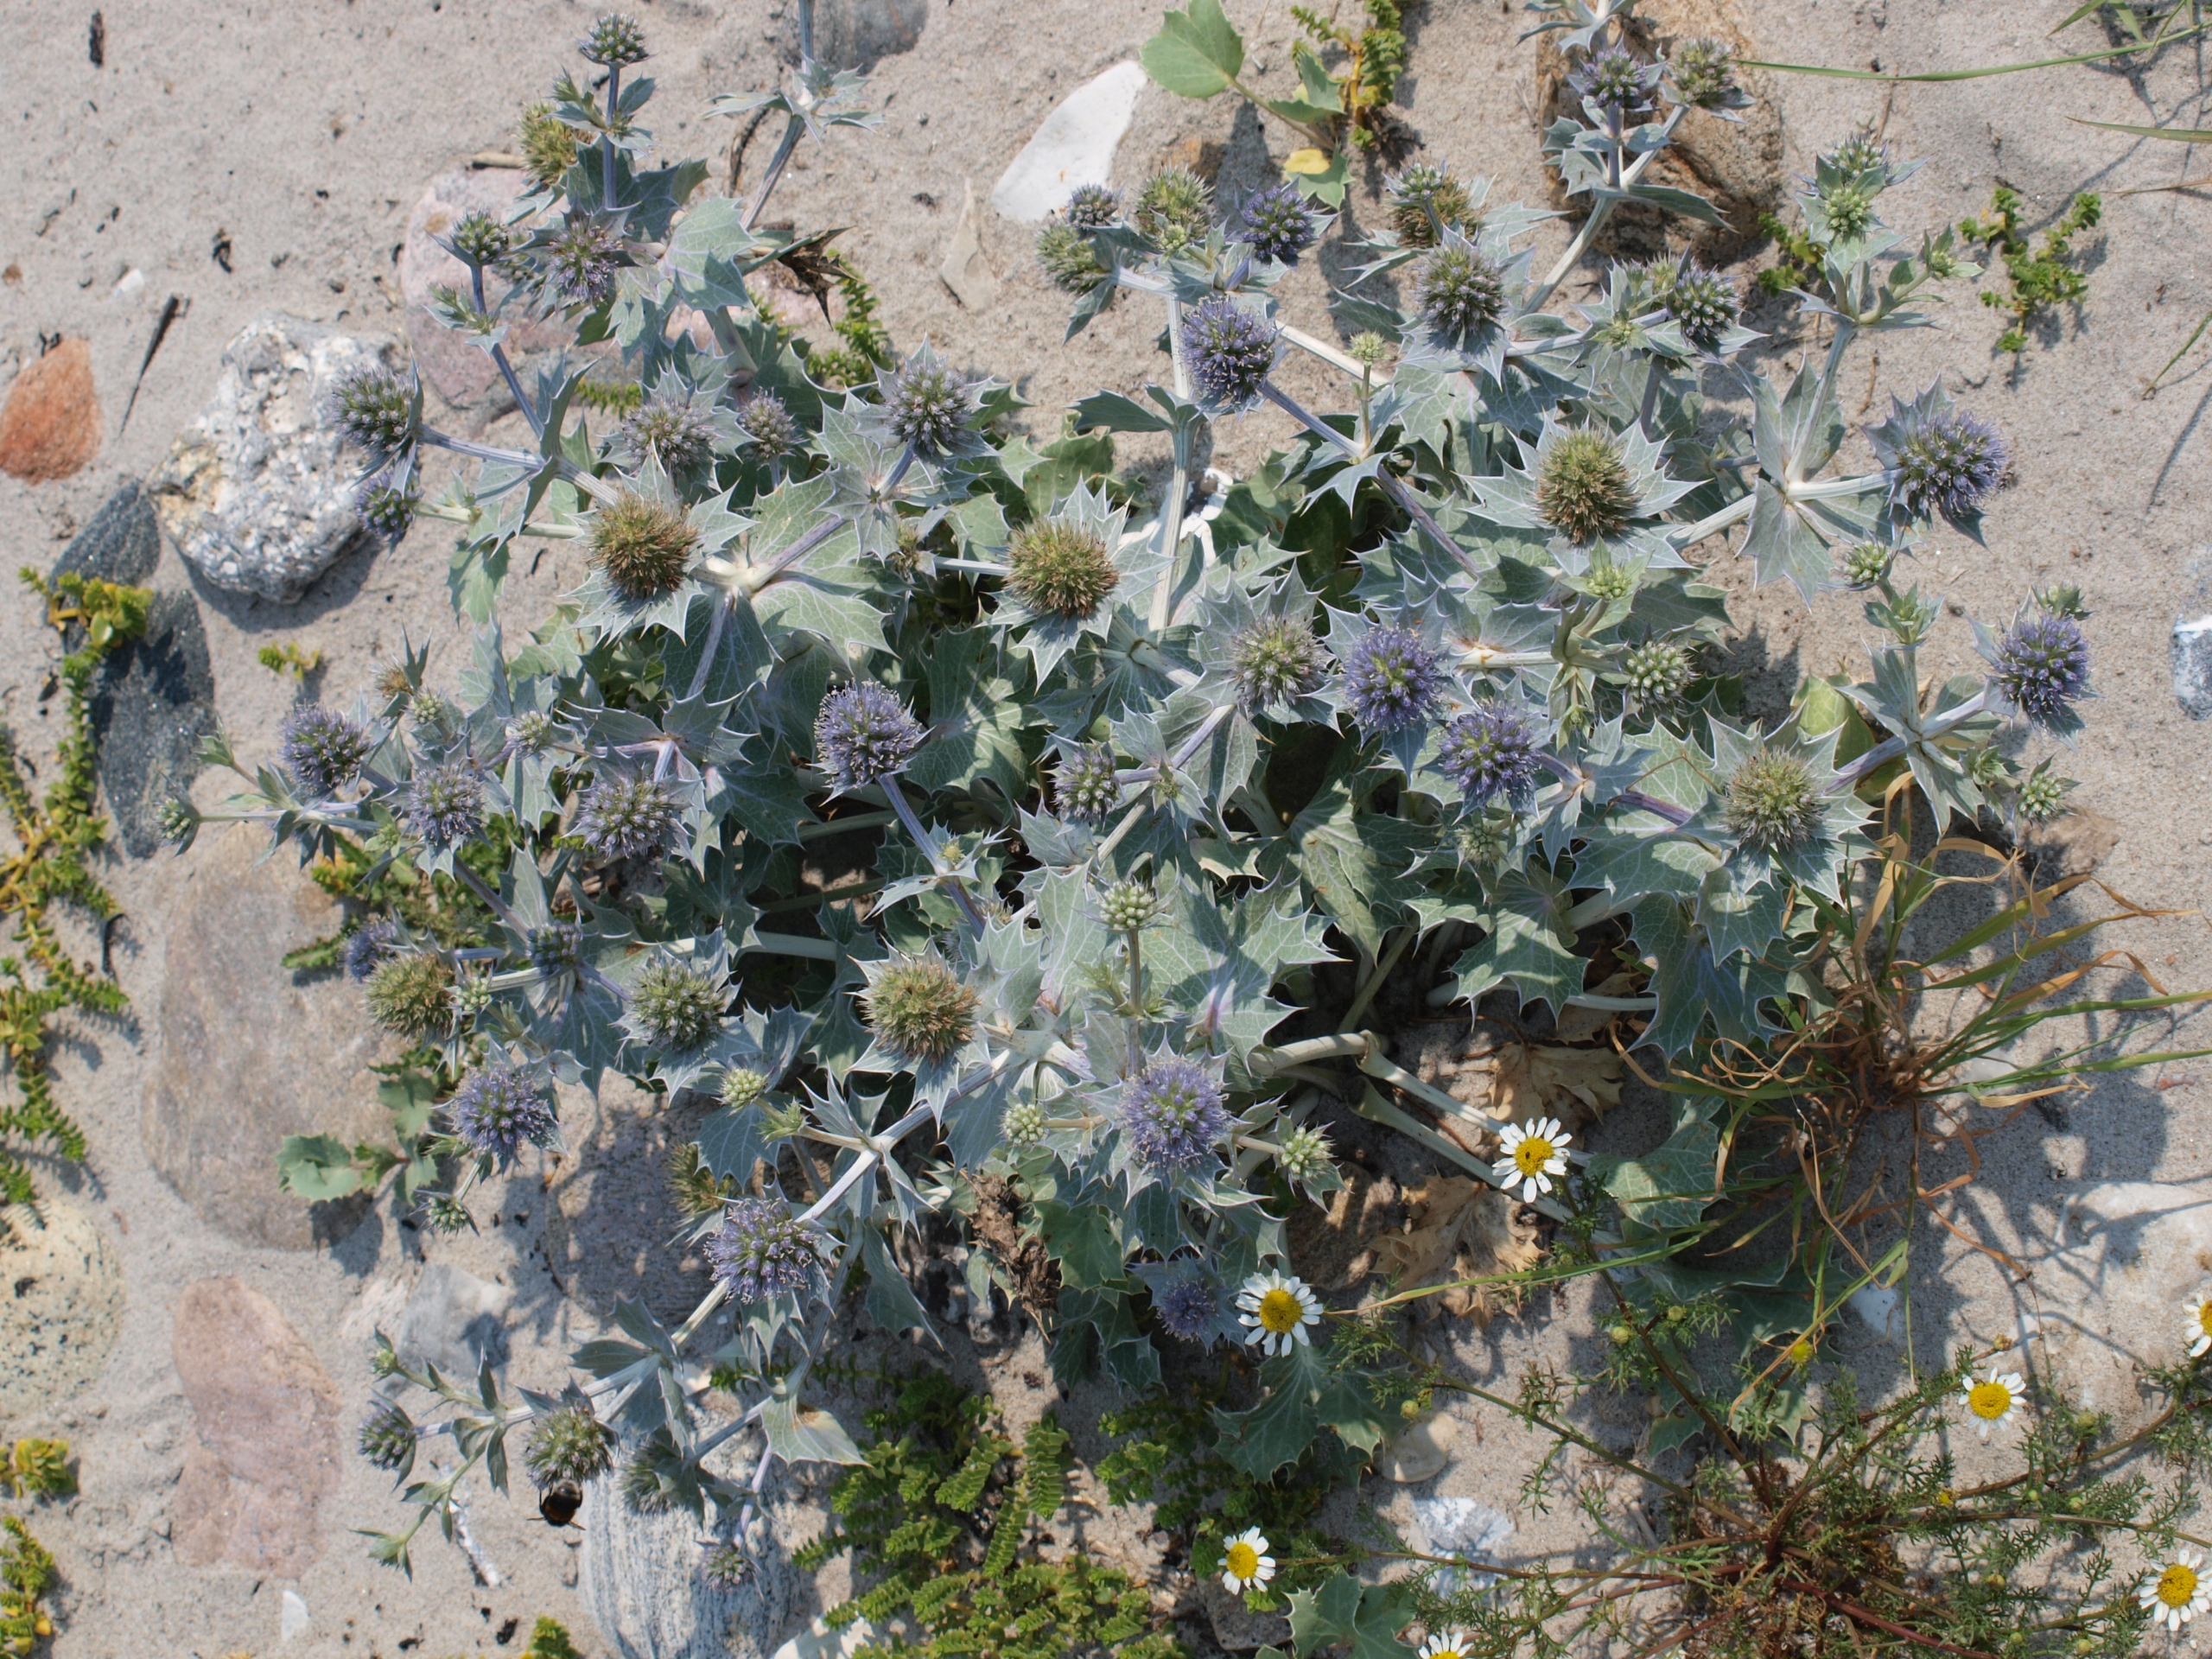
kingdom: Plantae
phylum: Tracheophyta
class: Magnoliopsida
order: Apiales
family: Apiaceae
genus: Eryngium
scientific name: Eryngium maritimum
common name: Strand-mandstro
